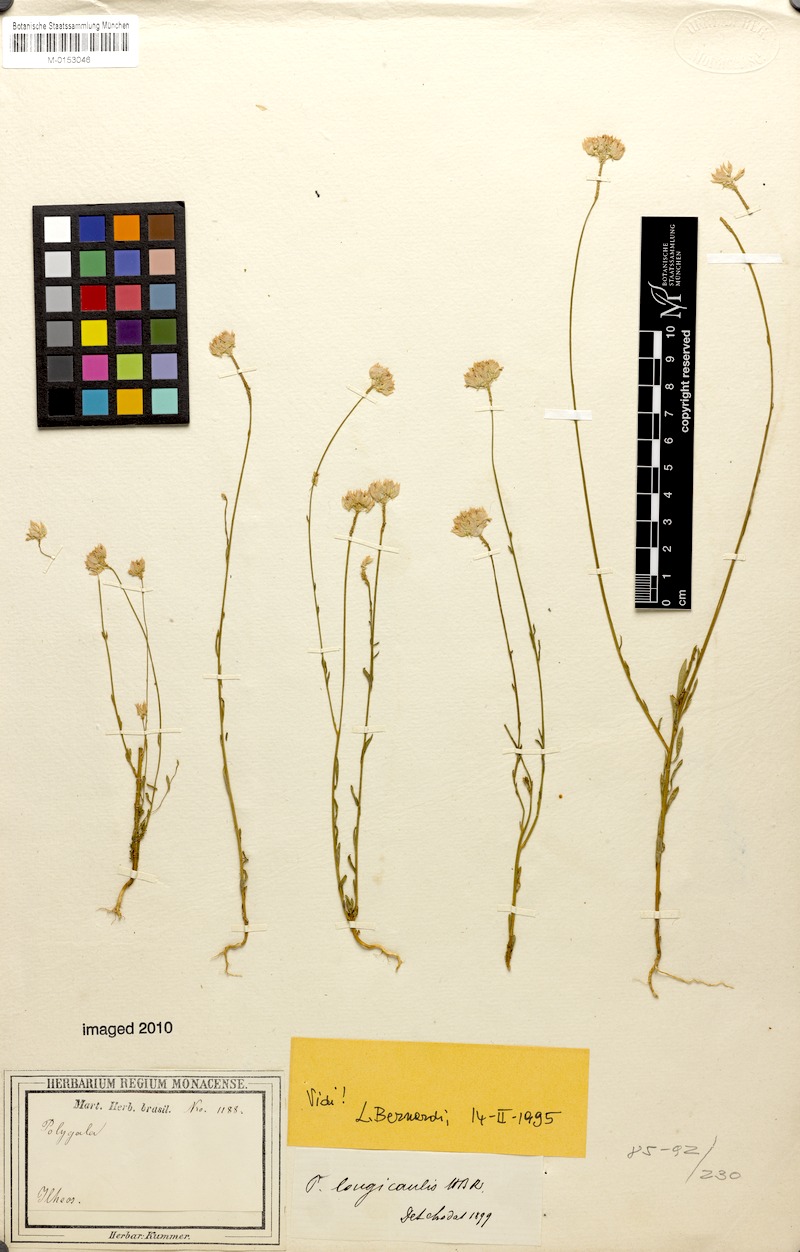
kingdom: Plantae
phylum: Tracheophyta
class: Magnoliopsida
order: Fabales
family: Polygalaceae
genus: Polygala
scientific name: Polygala longicaulis
